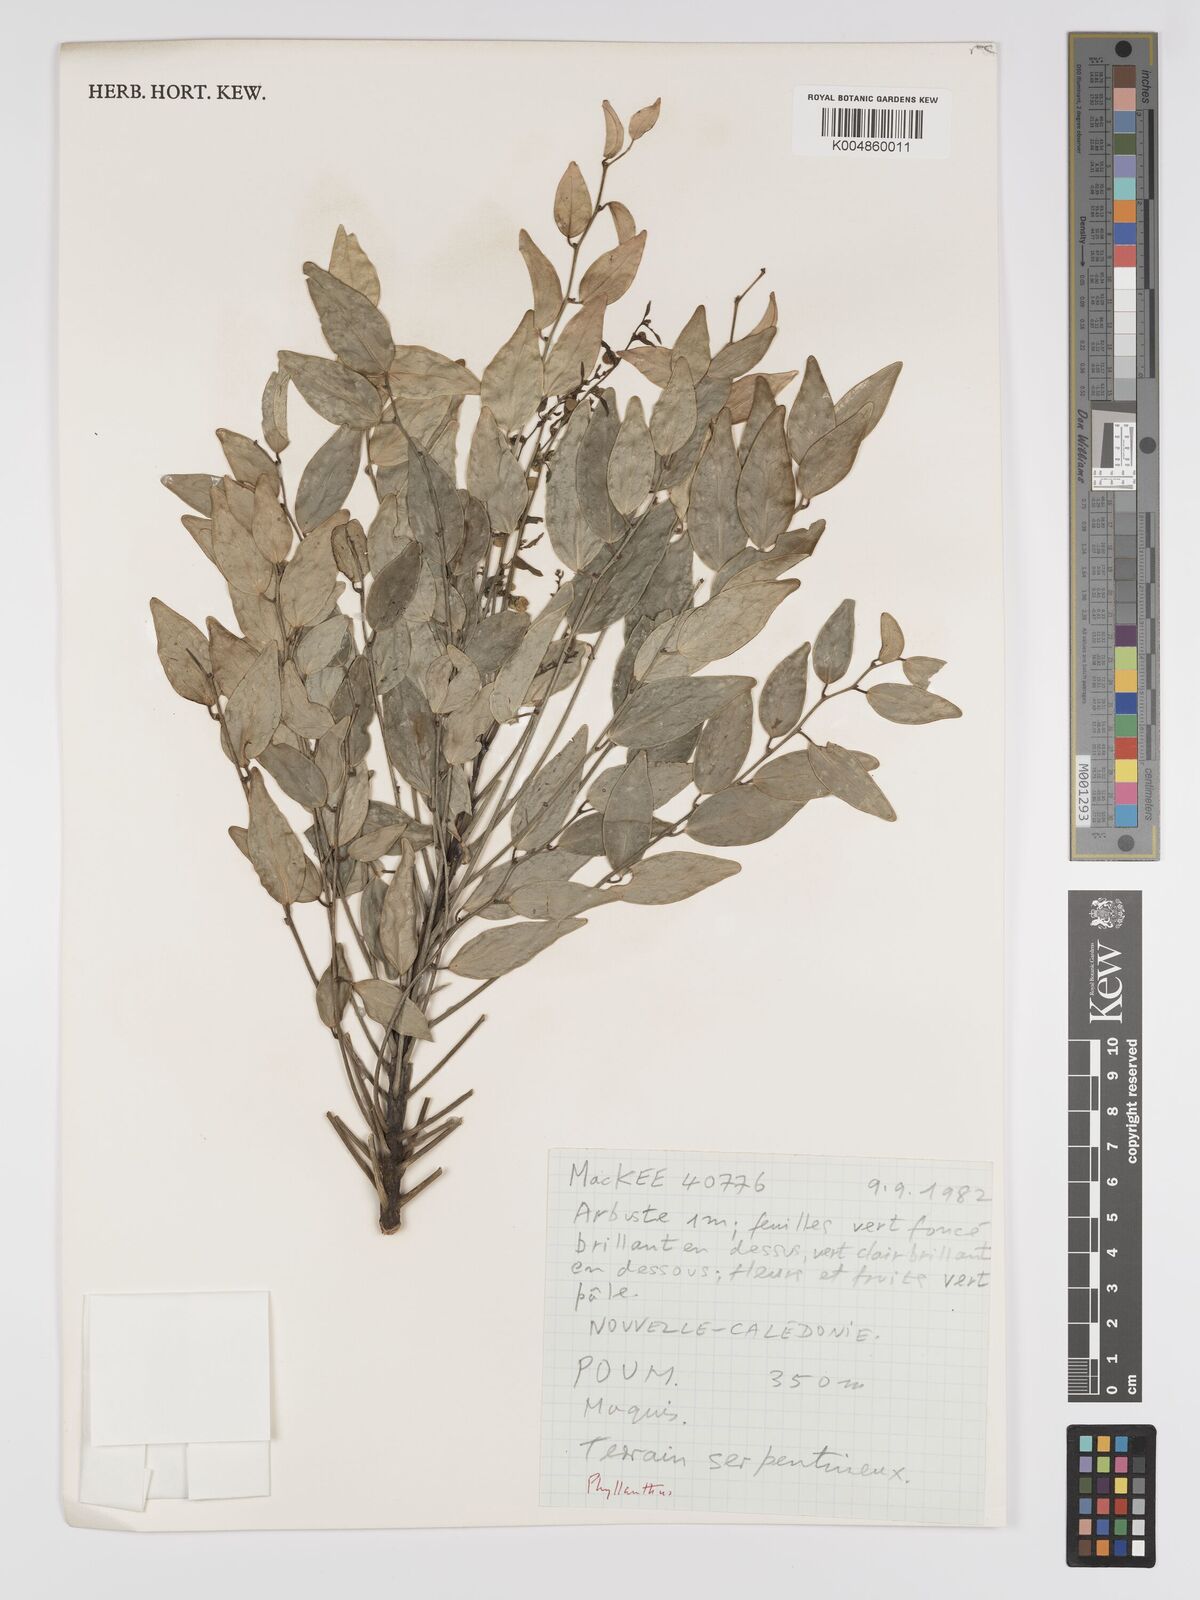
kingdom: Plantae
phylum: Tracheophyta
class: Magnoliopsida
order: Malpighiales
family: Phyllanthaceae
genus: Phyllanthus
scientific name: Phyllanthus
